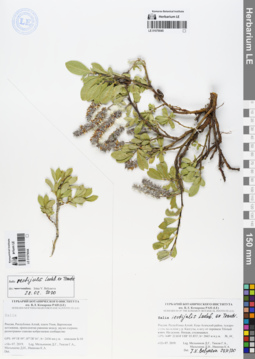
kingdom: Plantae
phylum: Tracheophyta
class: Magnoliopsida
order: Malpighiales
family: Salicaceae
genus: Salix
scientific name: Salix rectijulis
